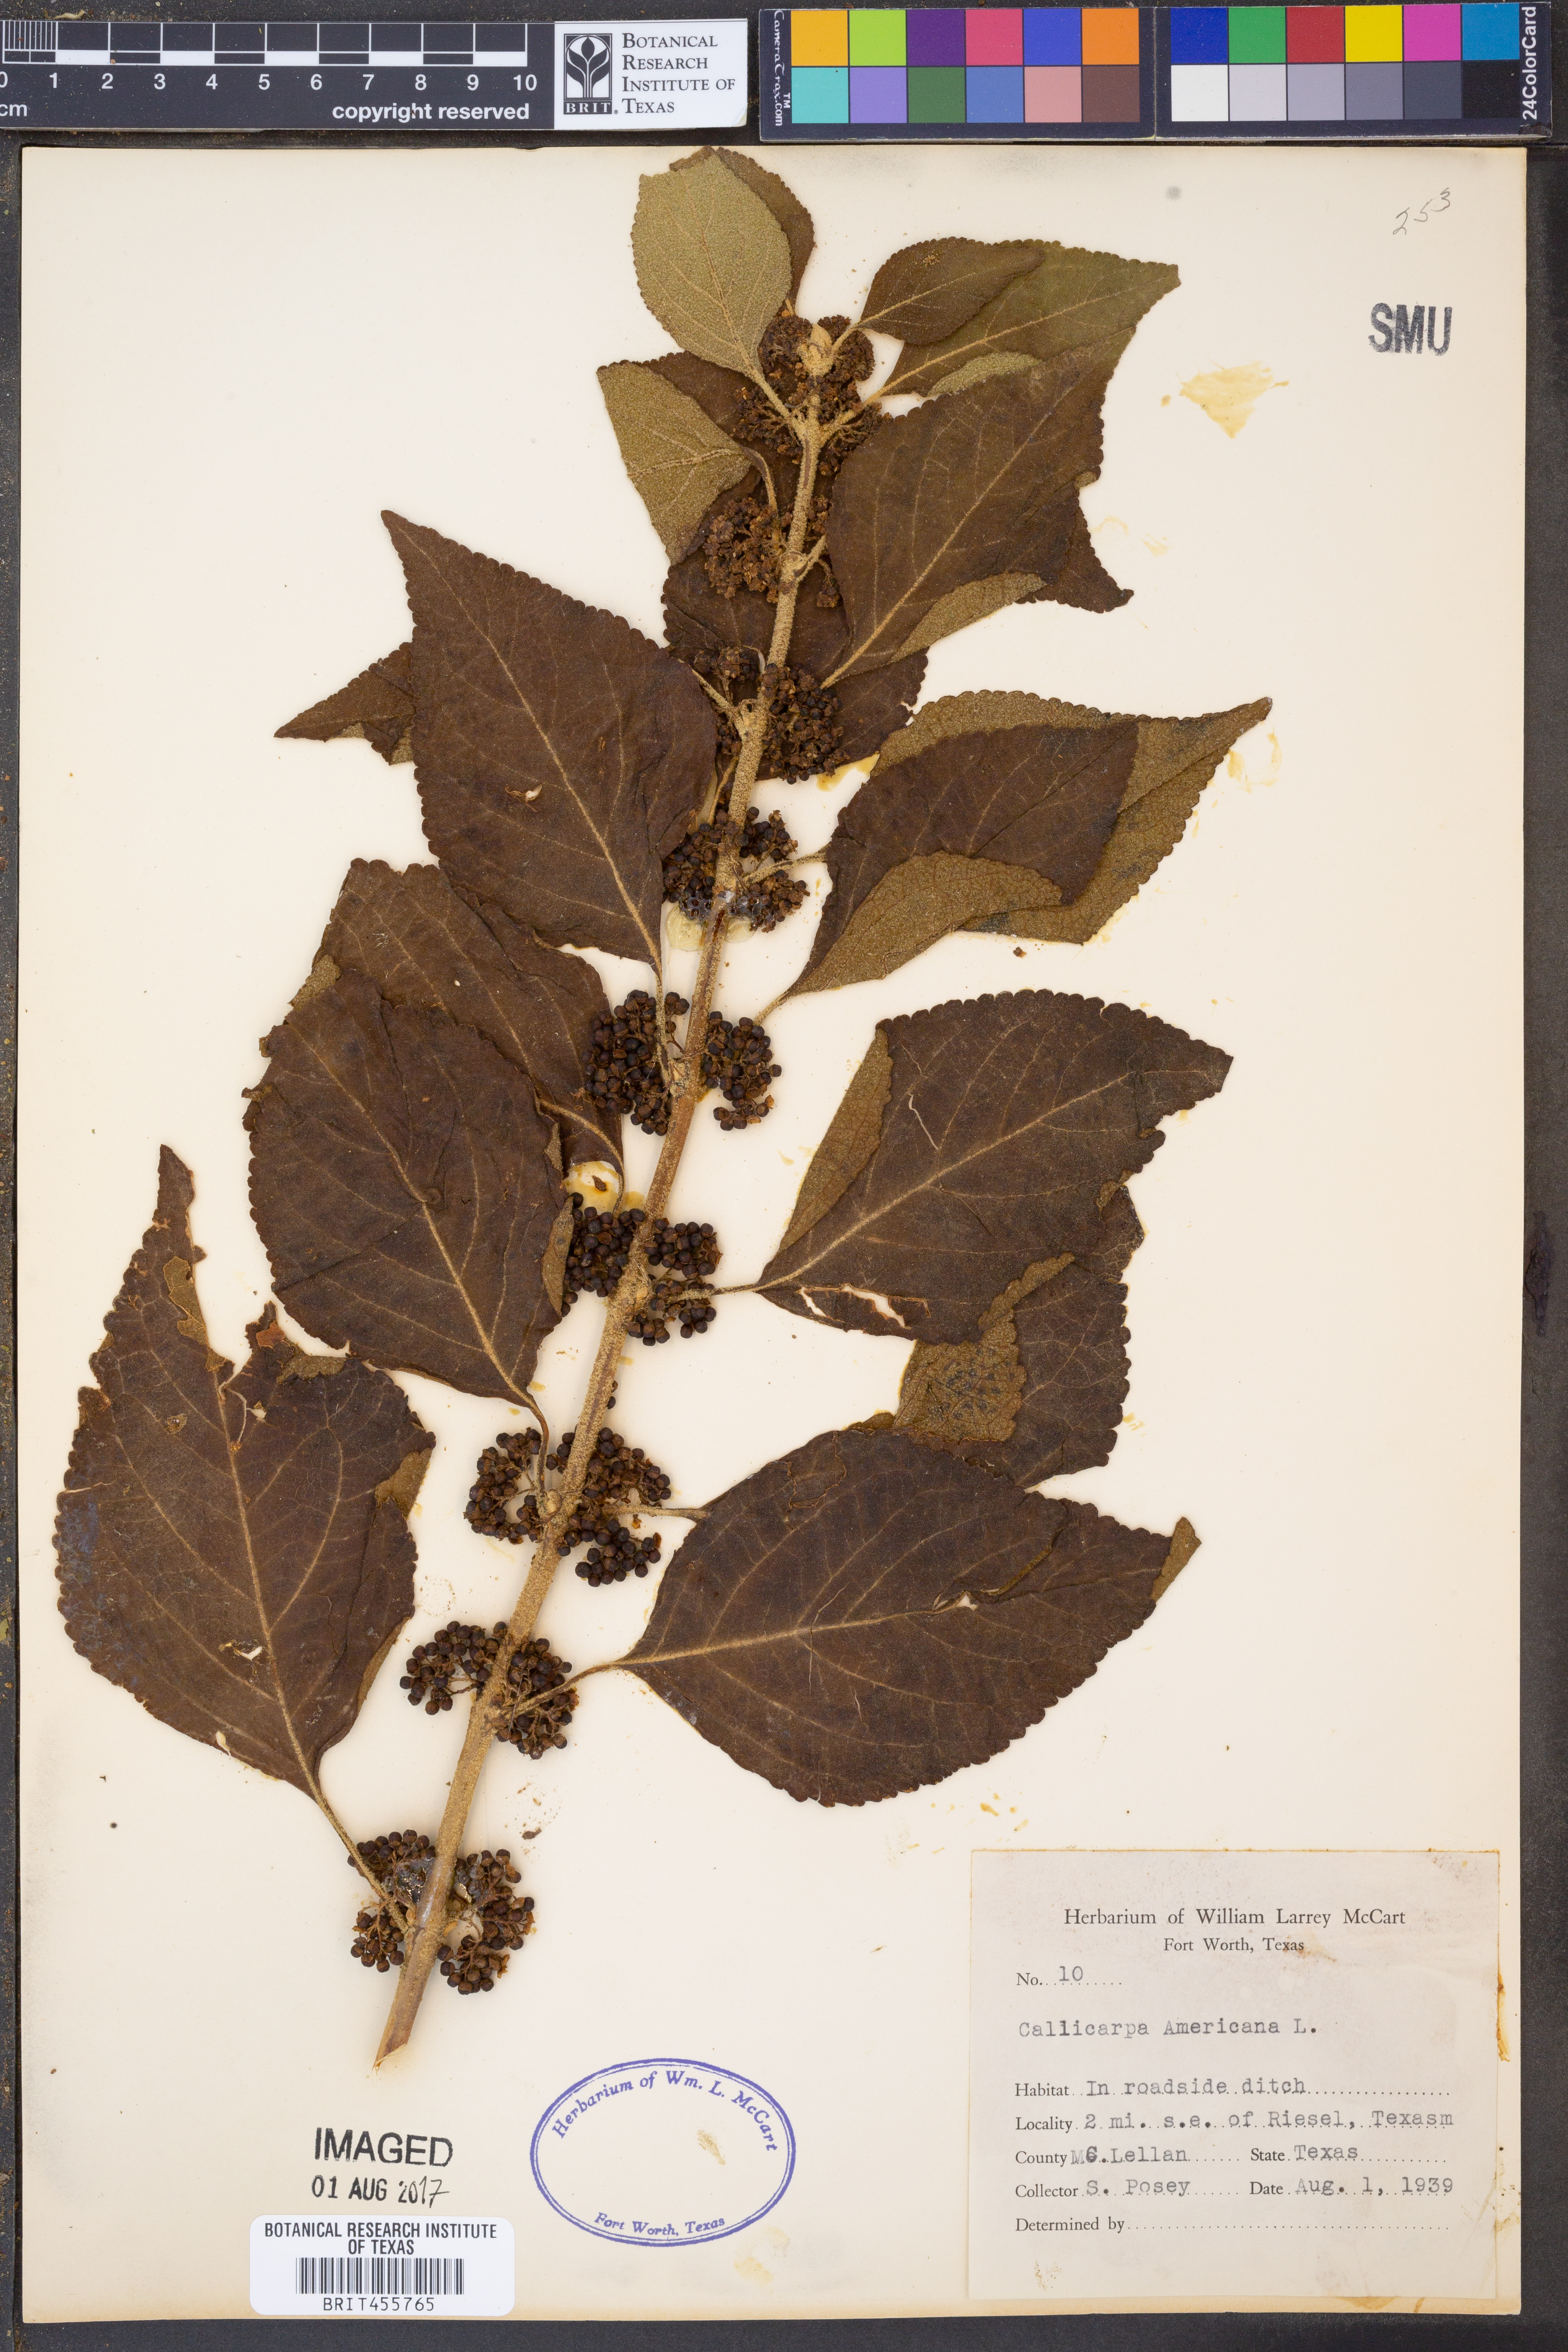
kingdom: Plantae
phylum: Tracheophyta
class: Magnoliopsida
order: Lamiales
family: Lamiaceae
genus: Callicarpa
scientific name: Callicarpa americana
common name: American beautyberry
